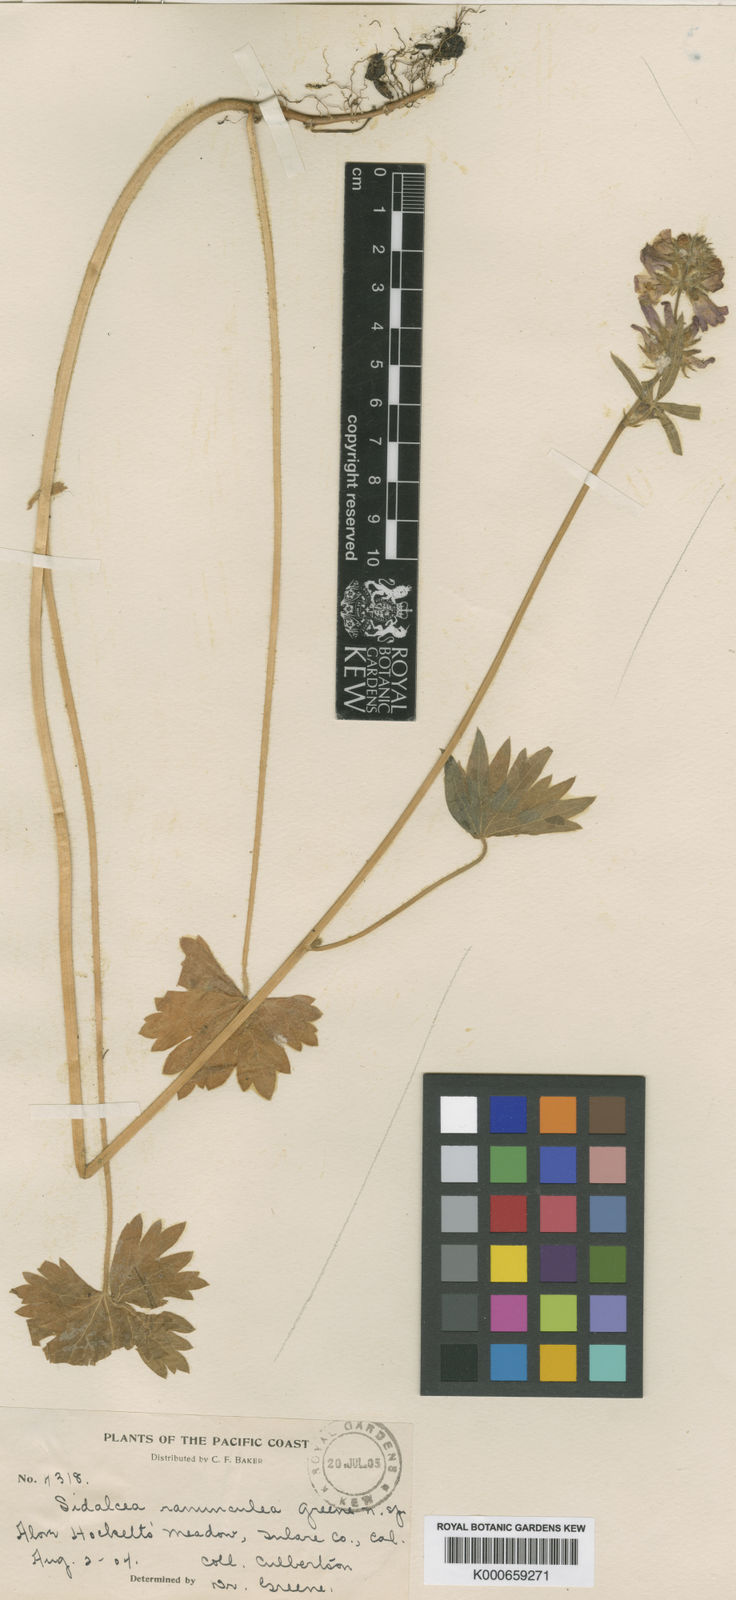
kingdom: Plantae
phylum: Tracheophyta
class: Magnoliopsida
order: Malvales
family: Malvaceae
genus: Sidalcea
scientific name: Sidalcea ranunculacea
